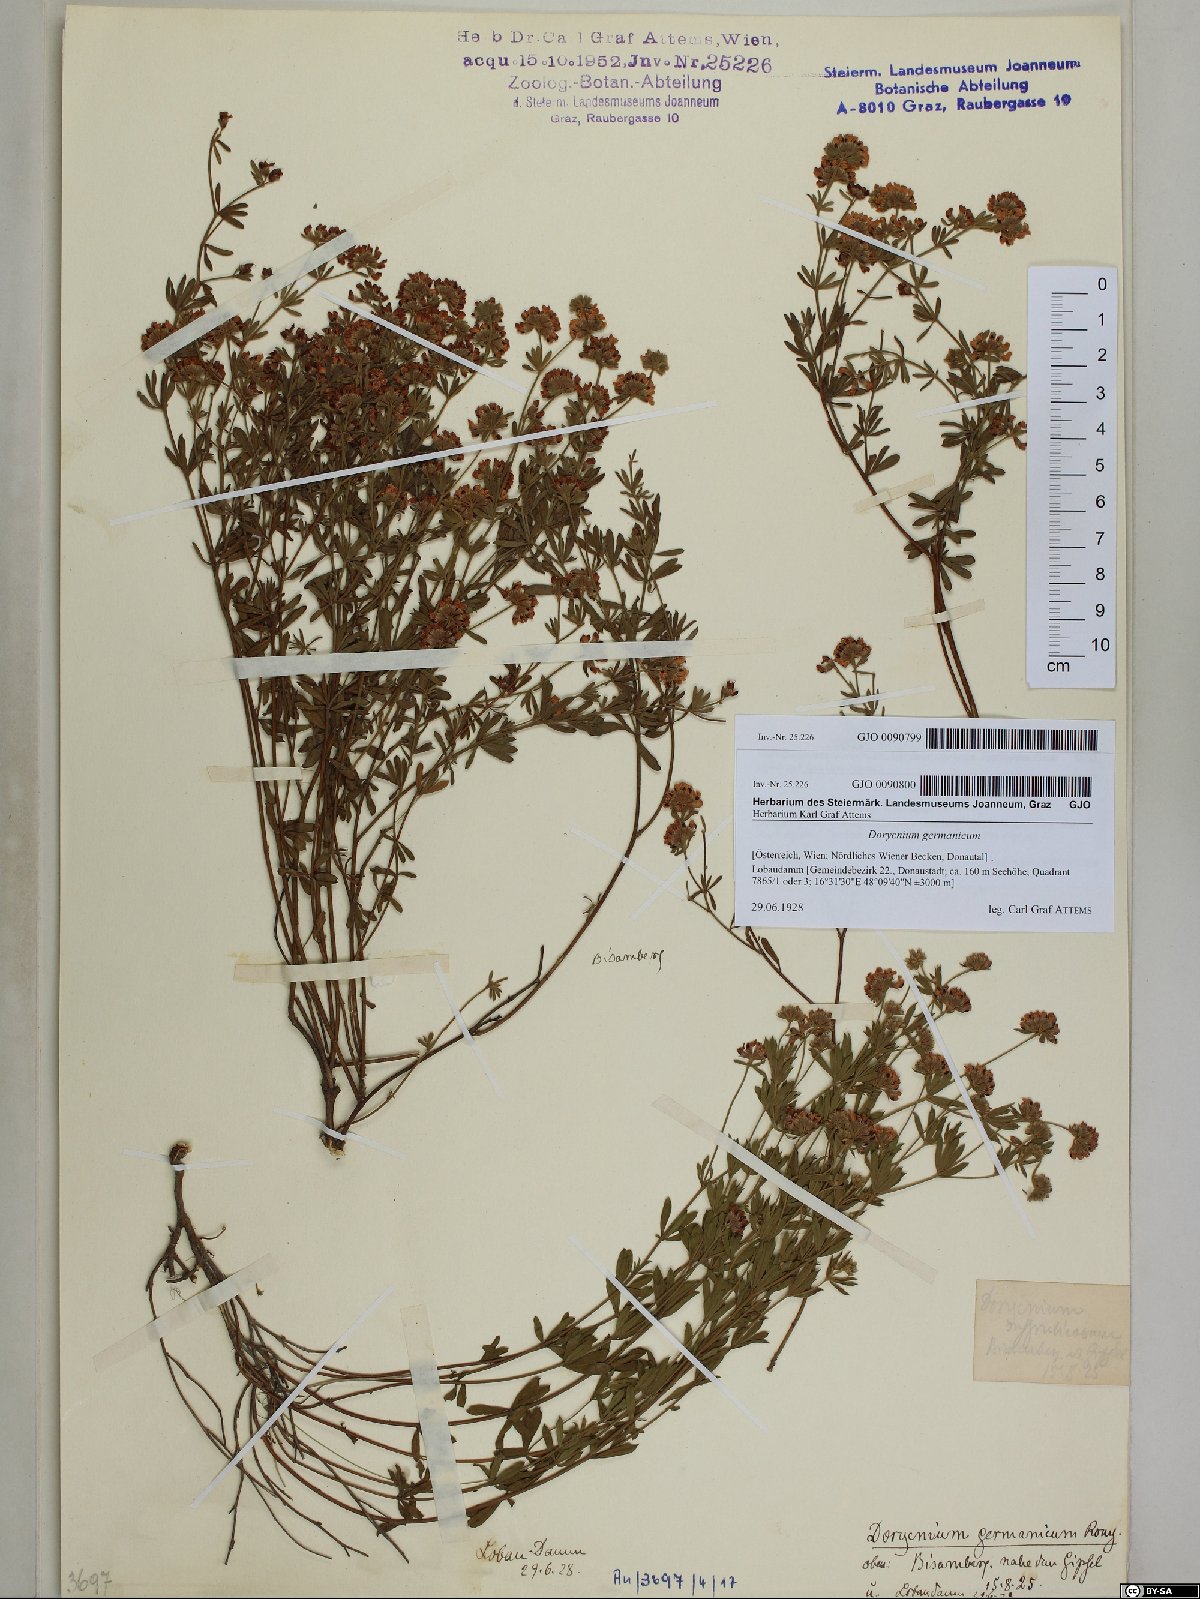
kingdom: Plantae
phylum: Tracheophyta
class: Magnoliopsida
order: Fabales
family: Fabaceae
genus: Lotus
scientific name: Lotus germanicus
